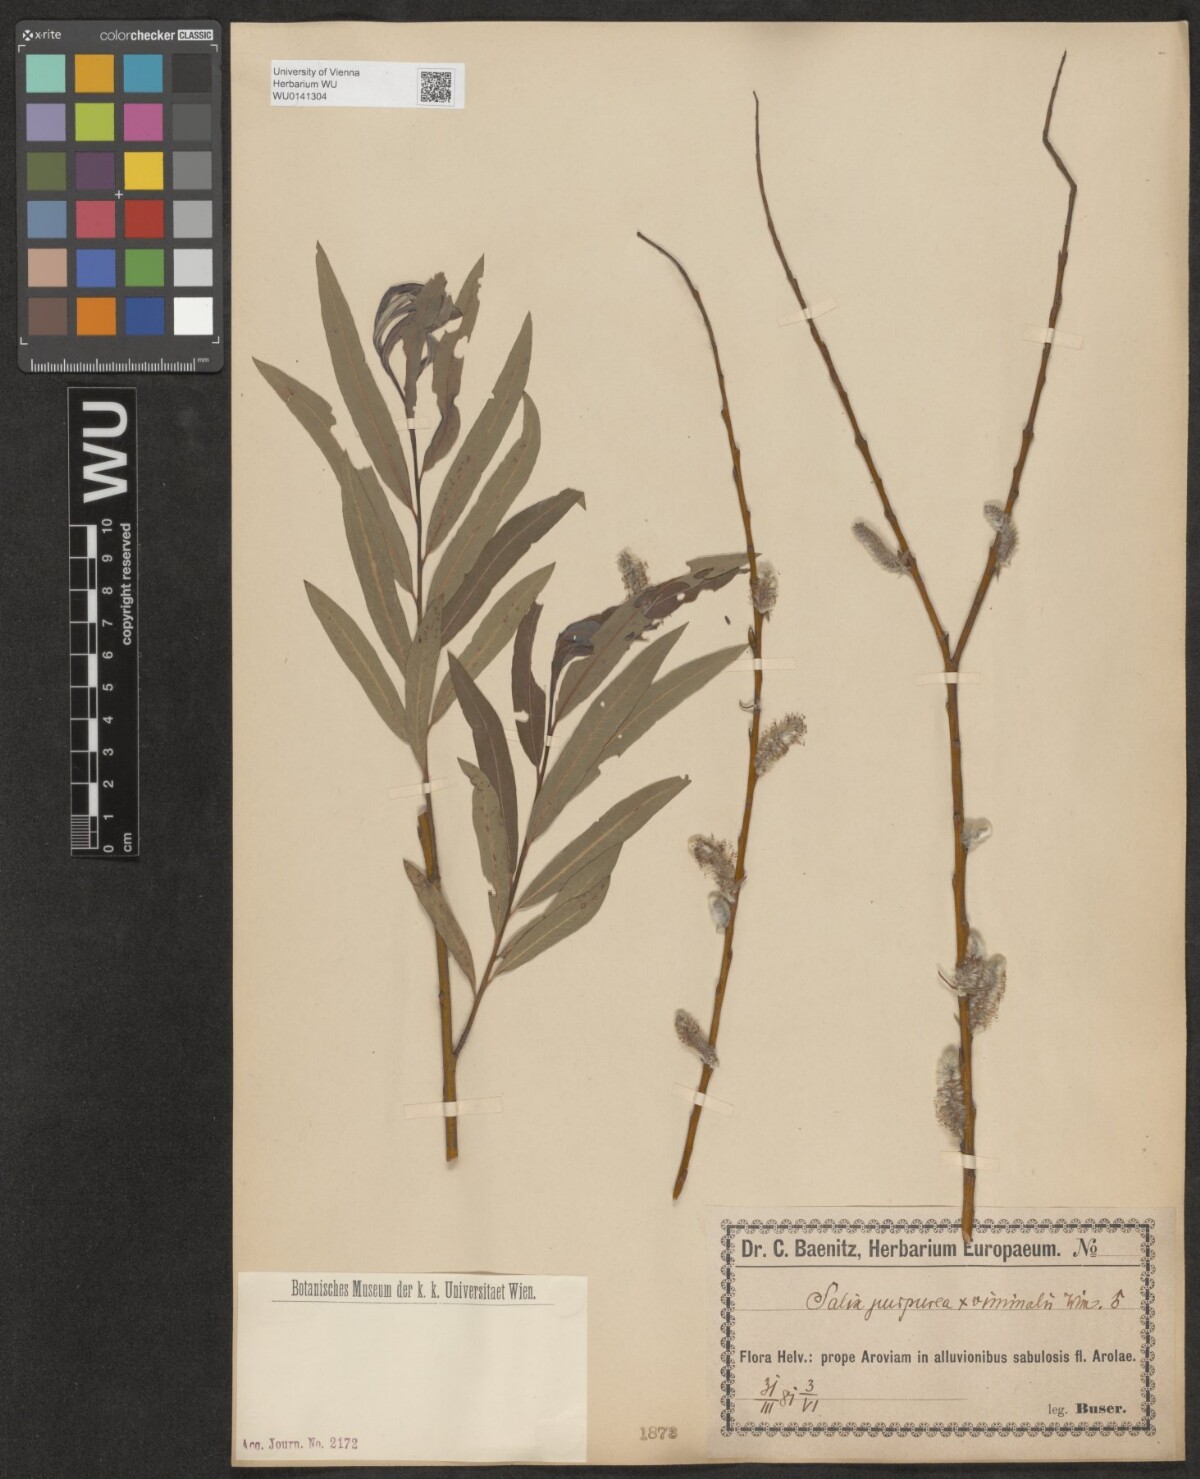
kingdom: Plantae
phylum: Tracheophyta
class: Magnoliopsida
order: Malpighiales
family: Salicaceae
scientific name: Salicaceae
